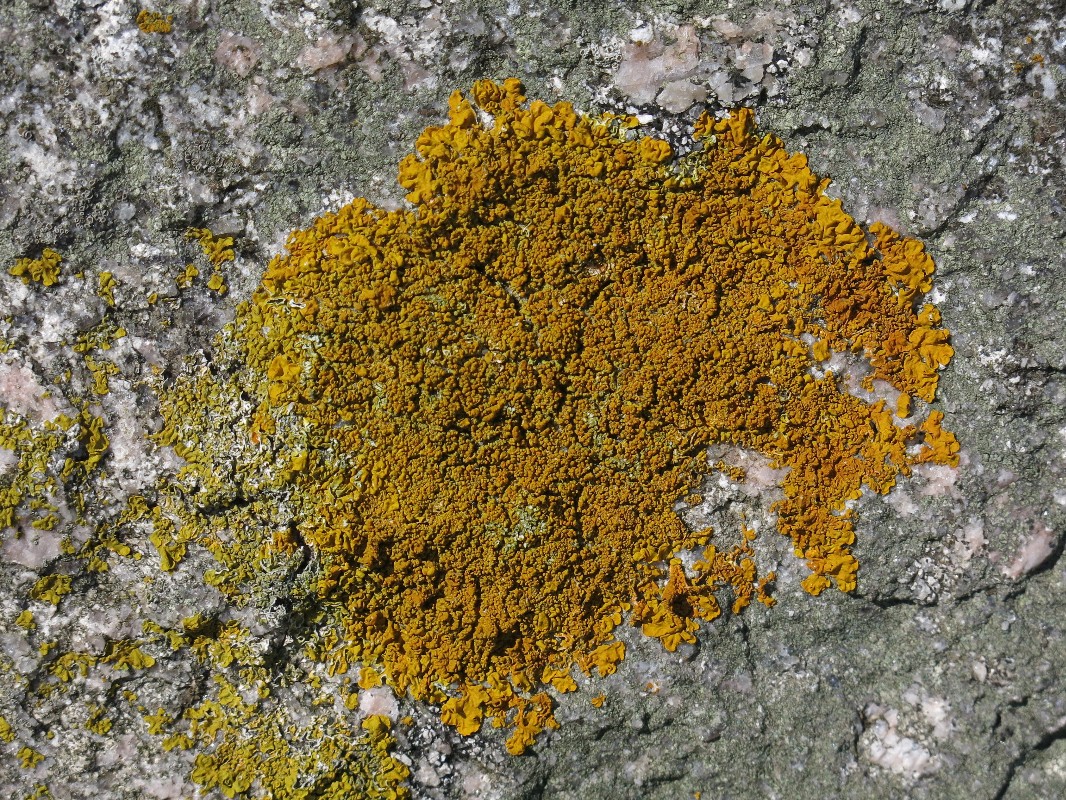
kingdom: Fungi
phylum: Ascomycota
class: Lecanoromycetes
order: Teloschistales
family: Teloschistaceae
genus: Xanthoria
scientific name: Xanthoria calcicola
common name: vortet væggelav
